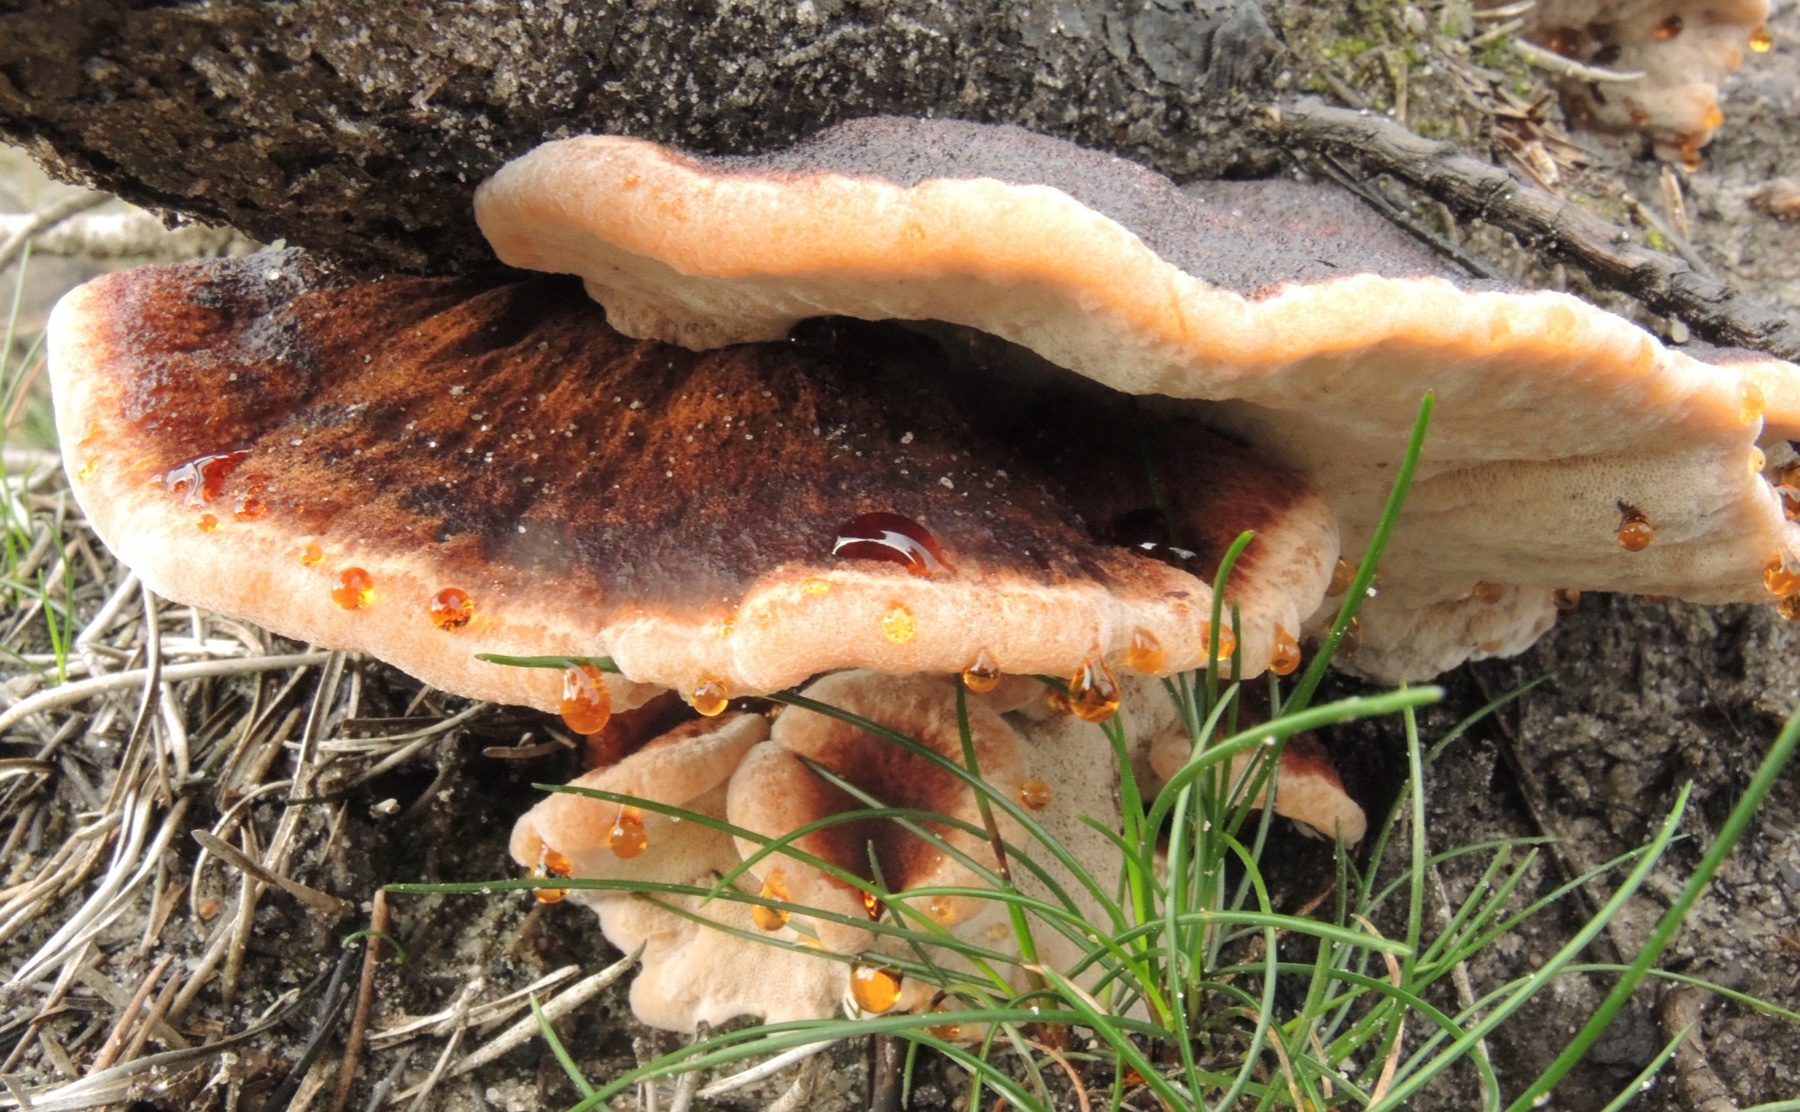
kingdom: Fungi
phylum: Basidiomycota
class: Agaricomycetes
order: Polyporales
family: Ischnodermataceae
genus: Ischnoderma
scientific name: Ischnoderma benzoinum
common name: gran-tjæreporesvamp
